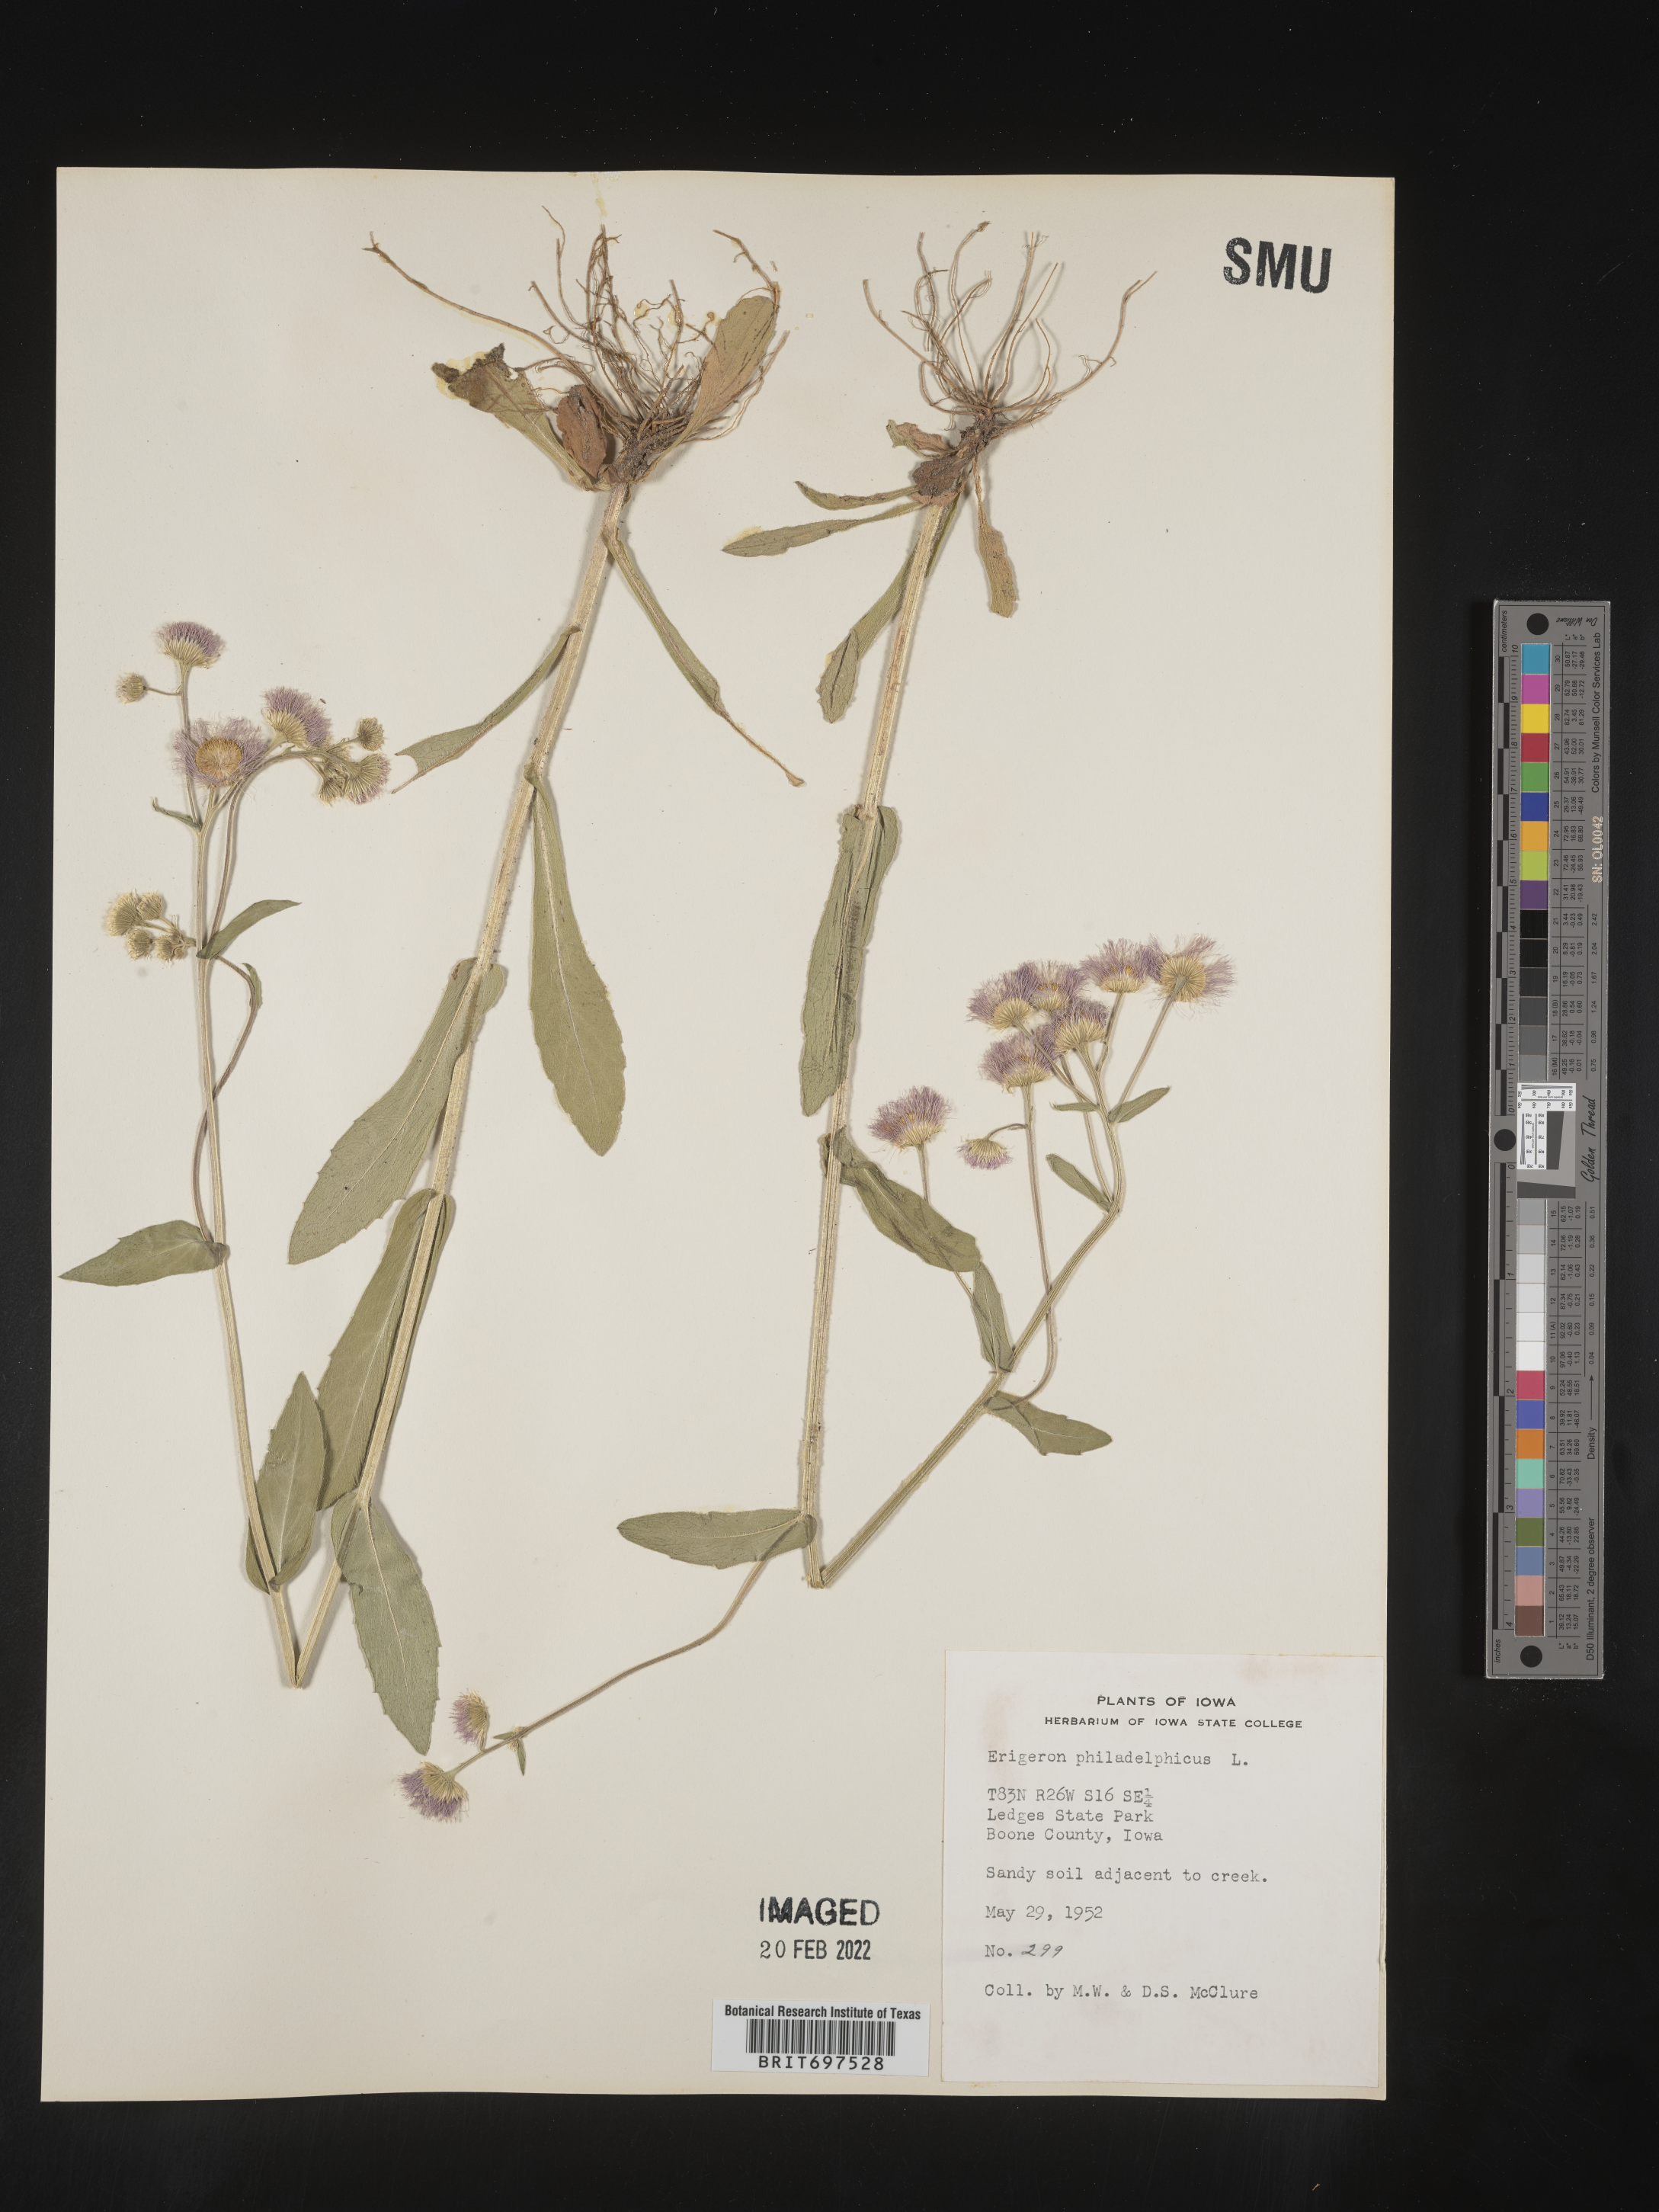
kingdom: Plantae
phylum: Tracheophyta
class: Magnoliopsida
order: Asterales
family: Asteraceae
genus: Erigeron
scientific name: Erigeron philadelphicus
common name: Robin's-plantain
